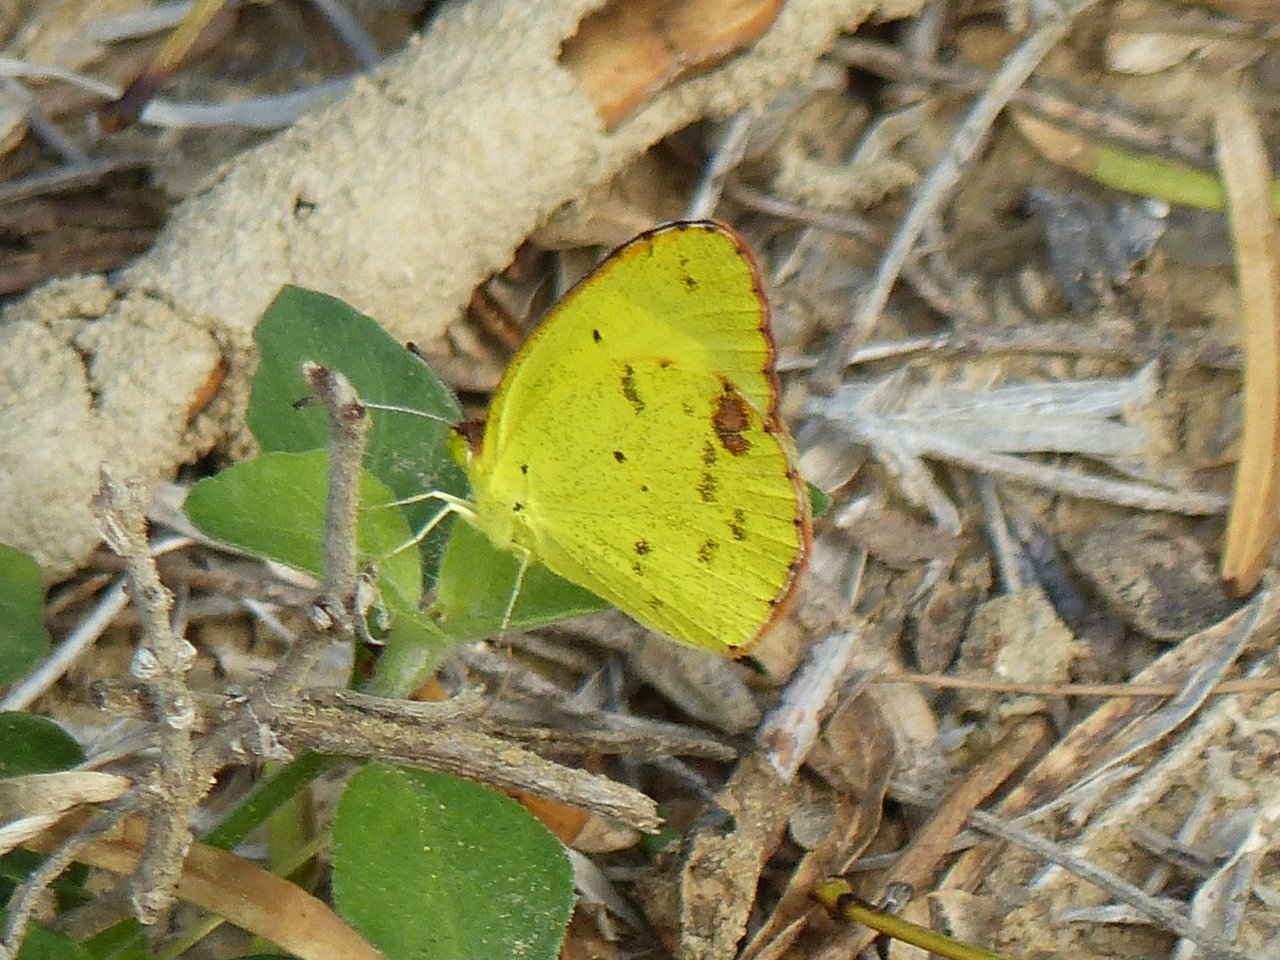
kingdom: Animalia
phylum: Arthropoda
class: Insecta
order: Lepidoptera
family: Pieridae
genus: Pyrisitia
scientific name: Pyrisitia lisa
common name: Little Yellow
